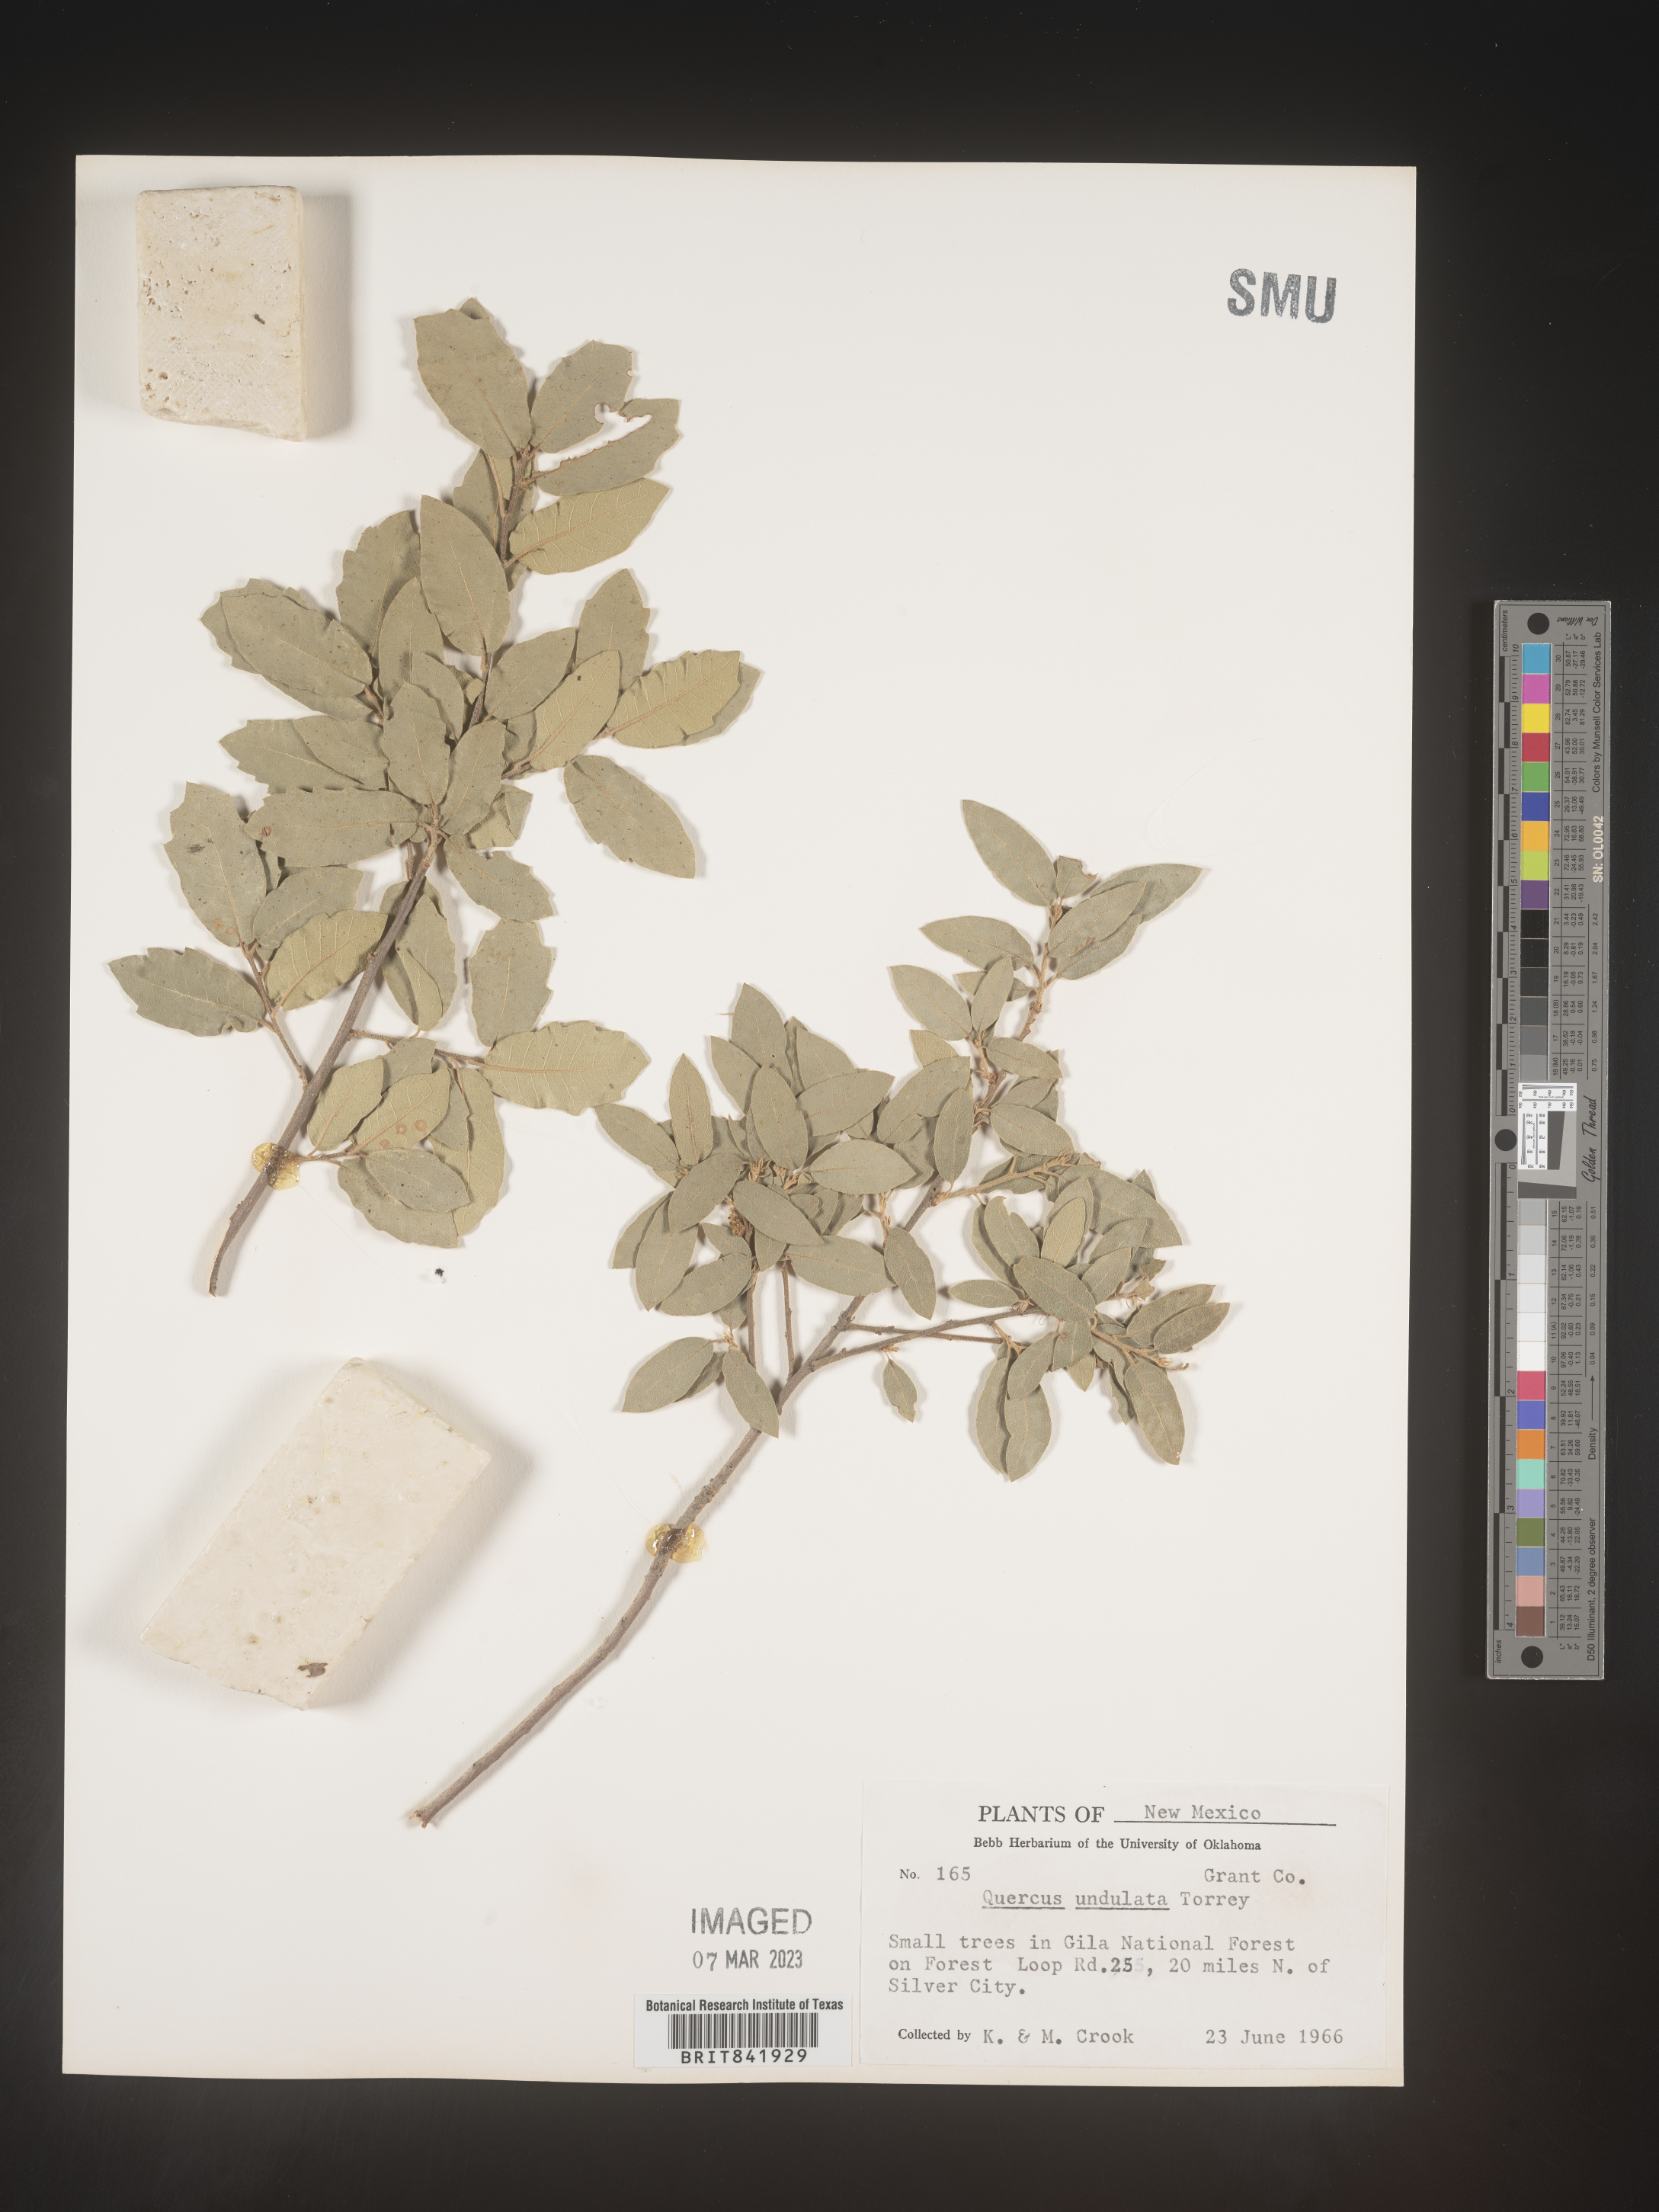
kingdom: Plantae
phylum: Tracheophyta
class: Magnoliopsida
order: Fagales
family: Fagaceae
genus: Quercus
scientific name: Quercus undulata
